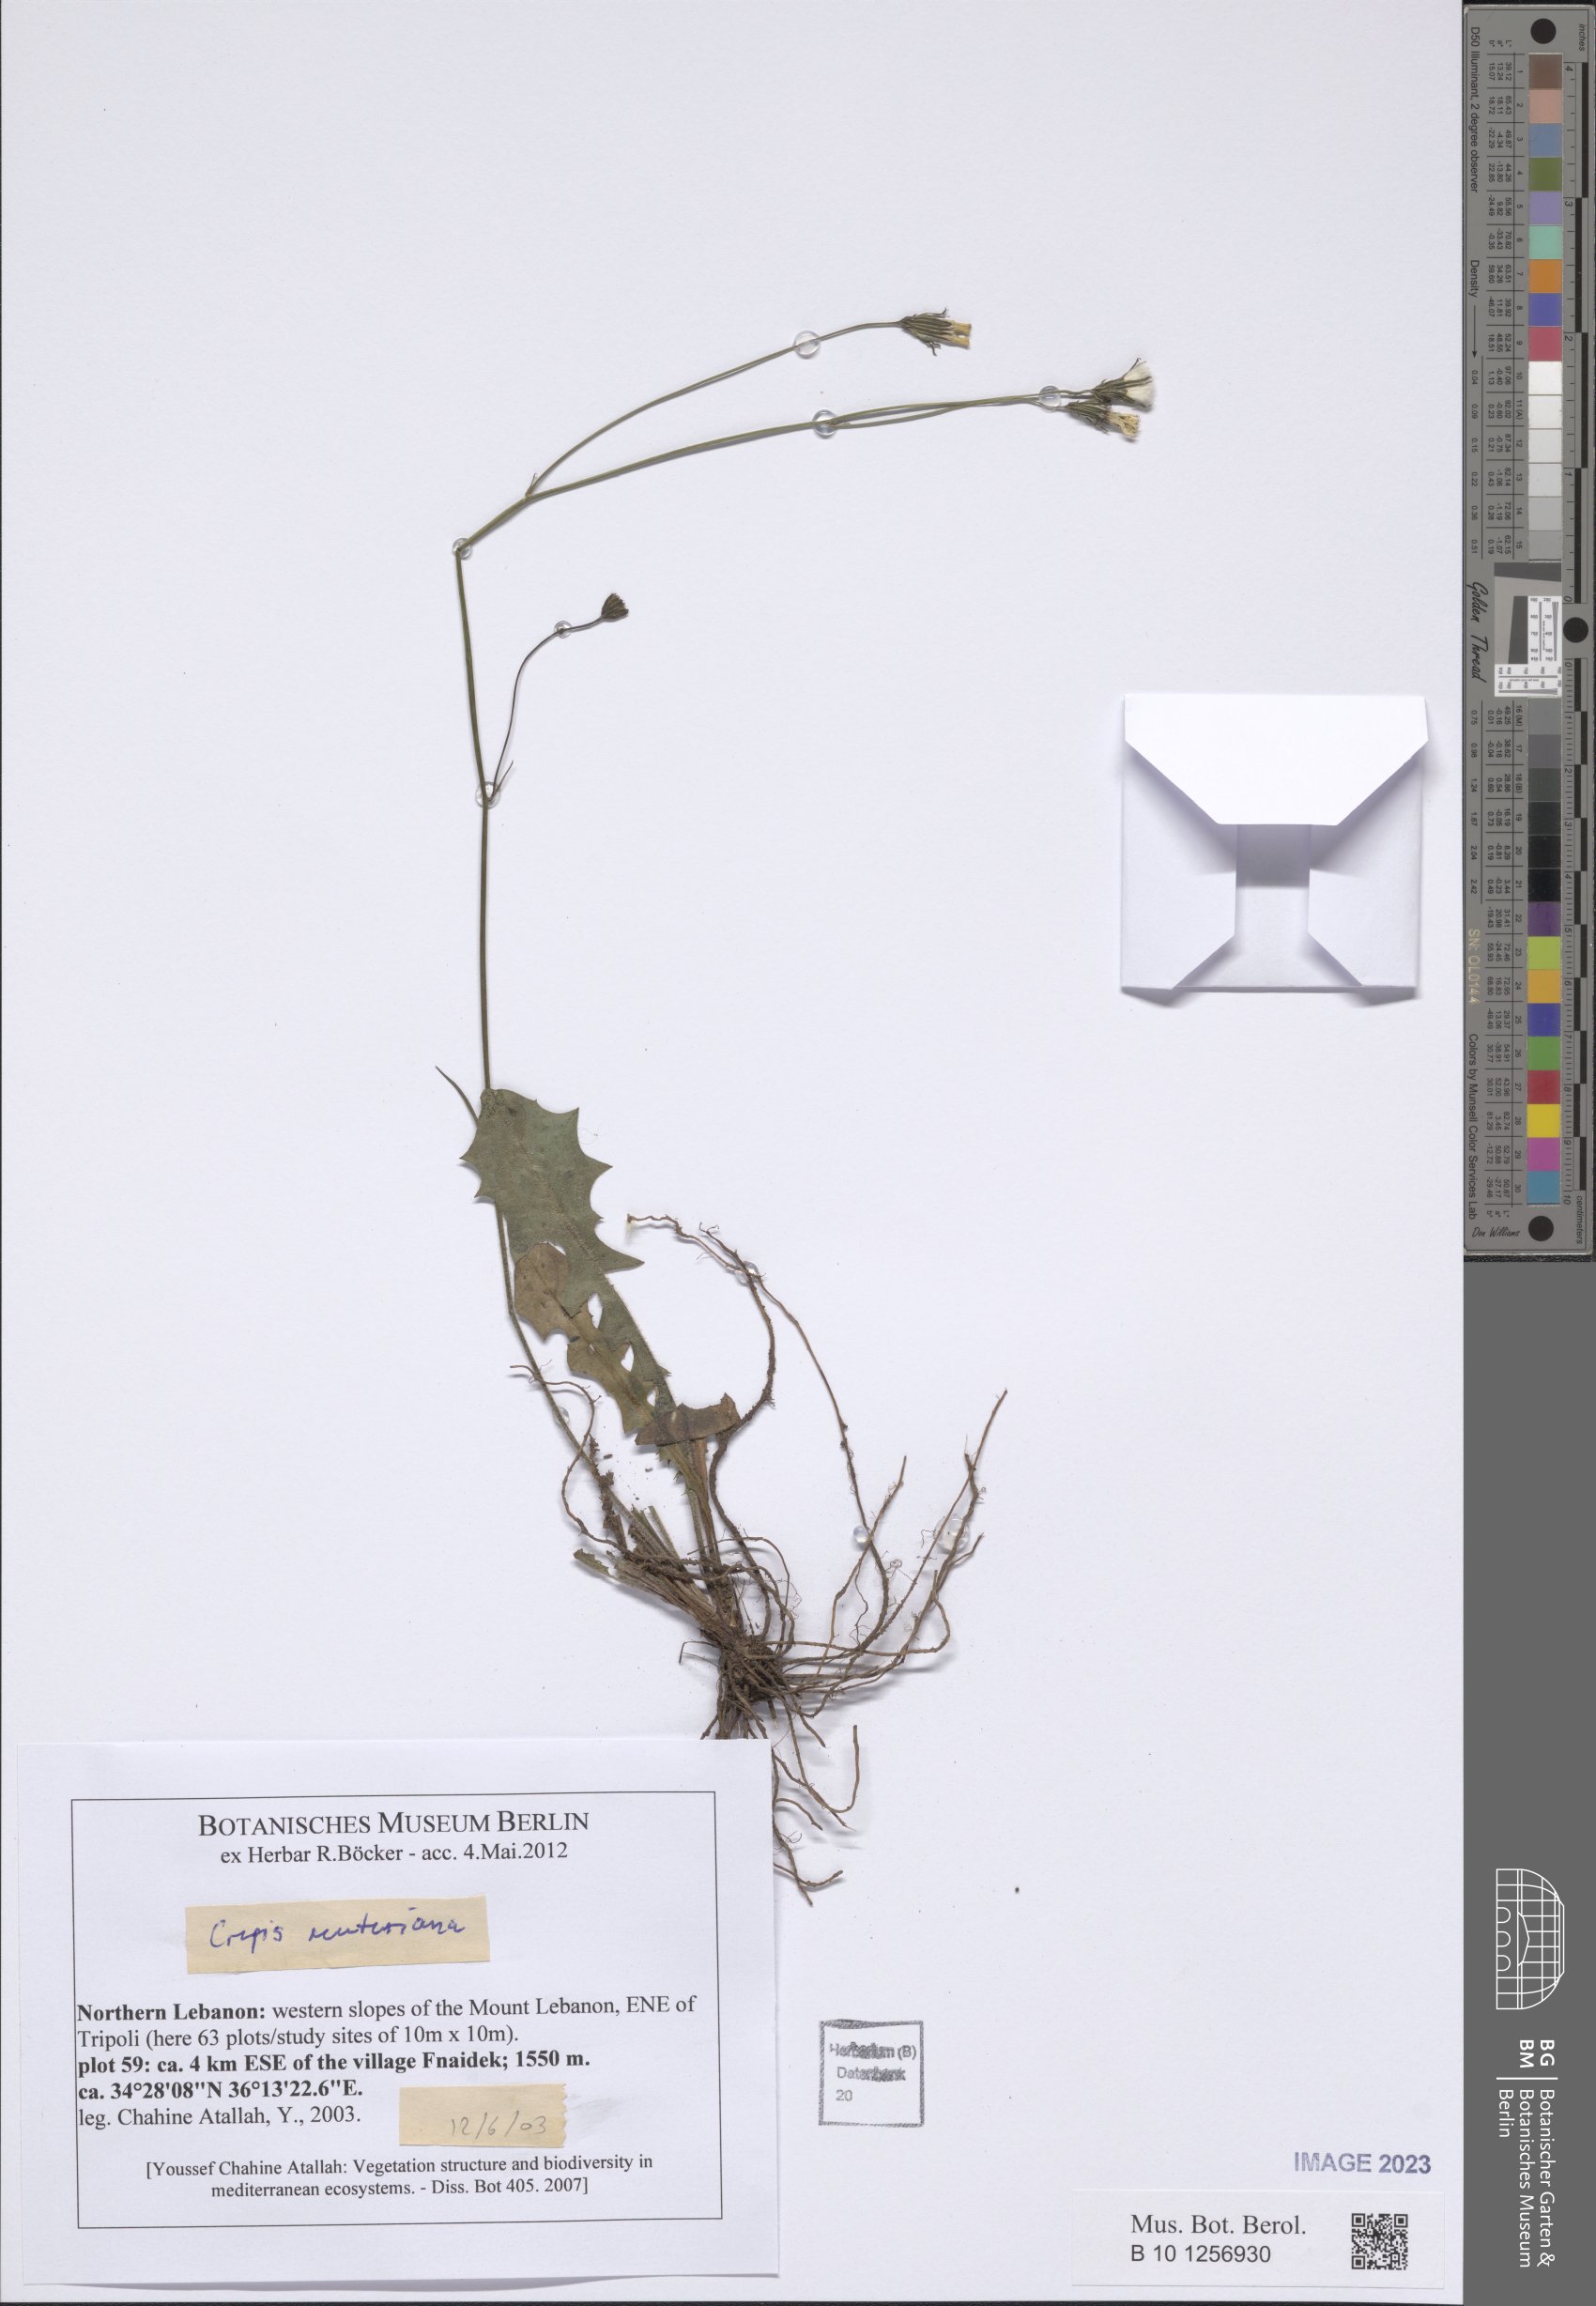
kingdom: Plantae
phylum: Tracheophyta
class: Magnoliopsida
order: Asterales
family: Asteraceae
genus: Crepis
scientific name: Crepis reuteriana
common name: Hawk's-beard
